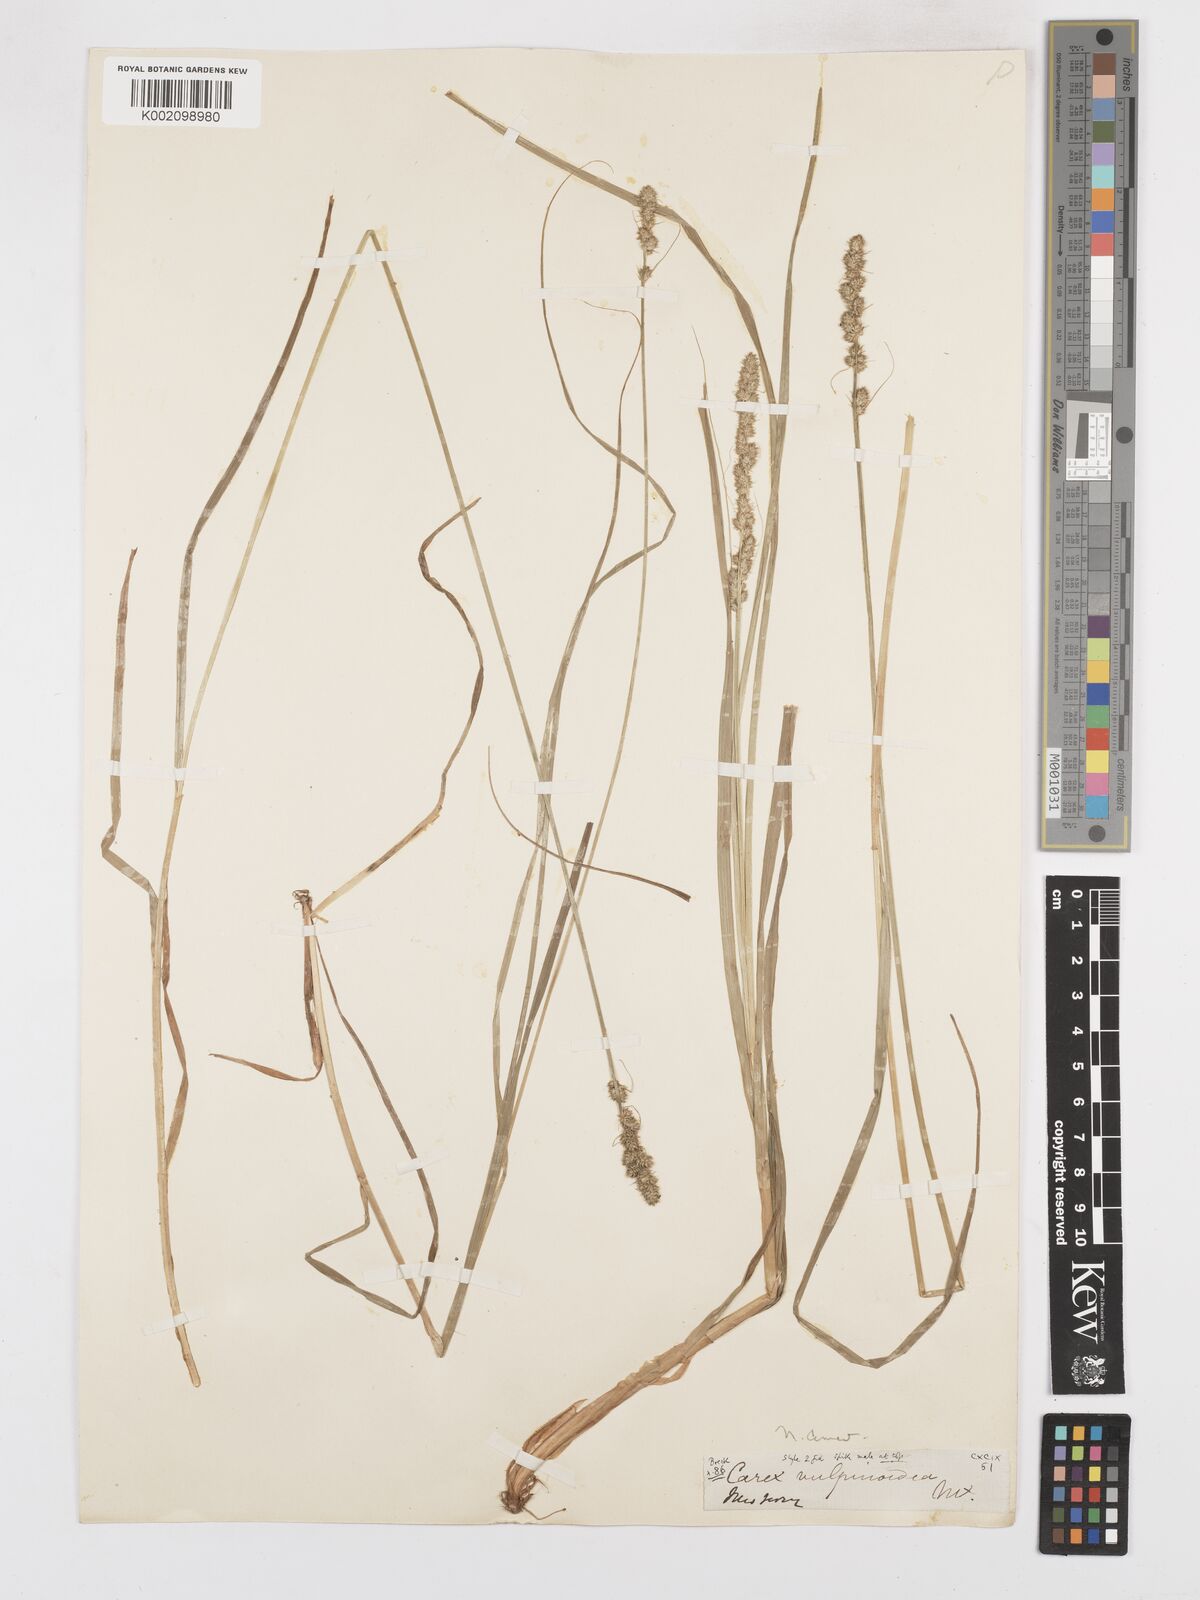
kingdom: Plantae
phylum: Tracheophyta
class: Liliopsida
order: Poales
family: Cyperaceae
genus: Carex
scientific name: Carex vulpinoidea
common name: American fox-sedge
